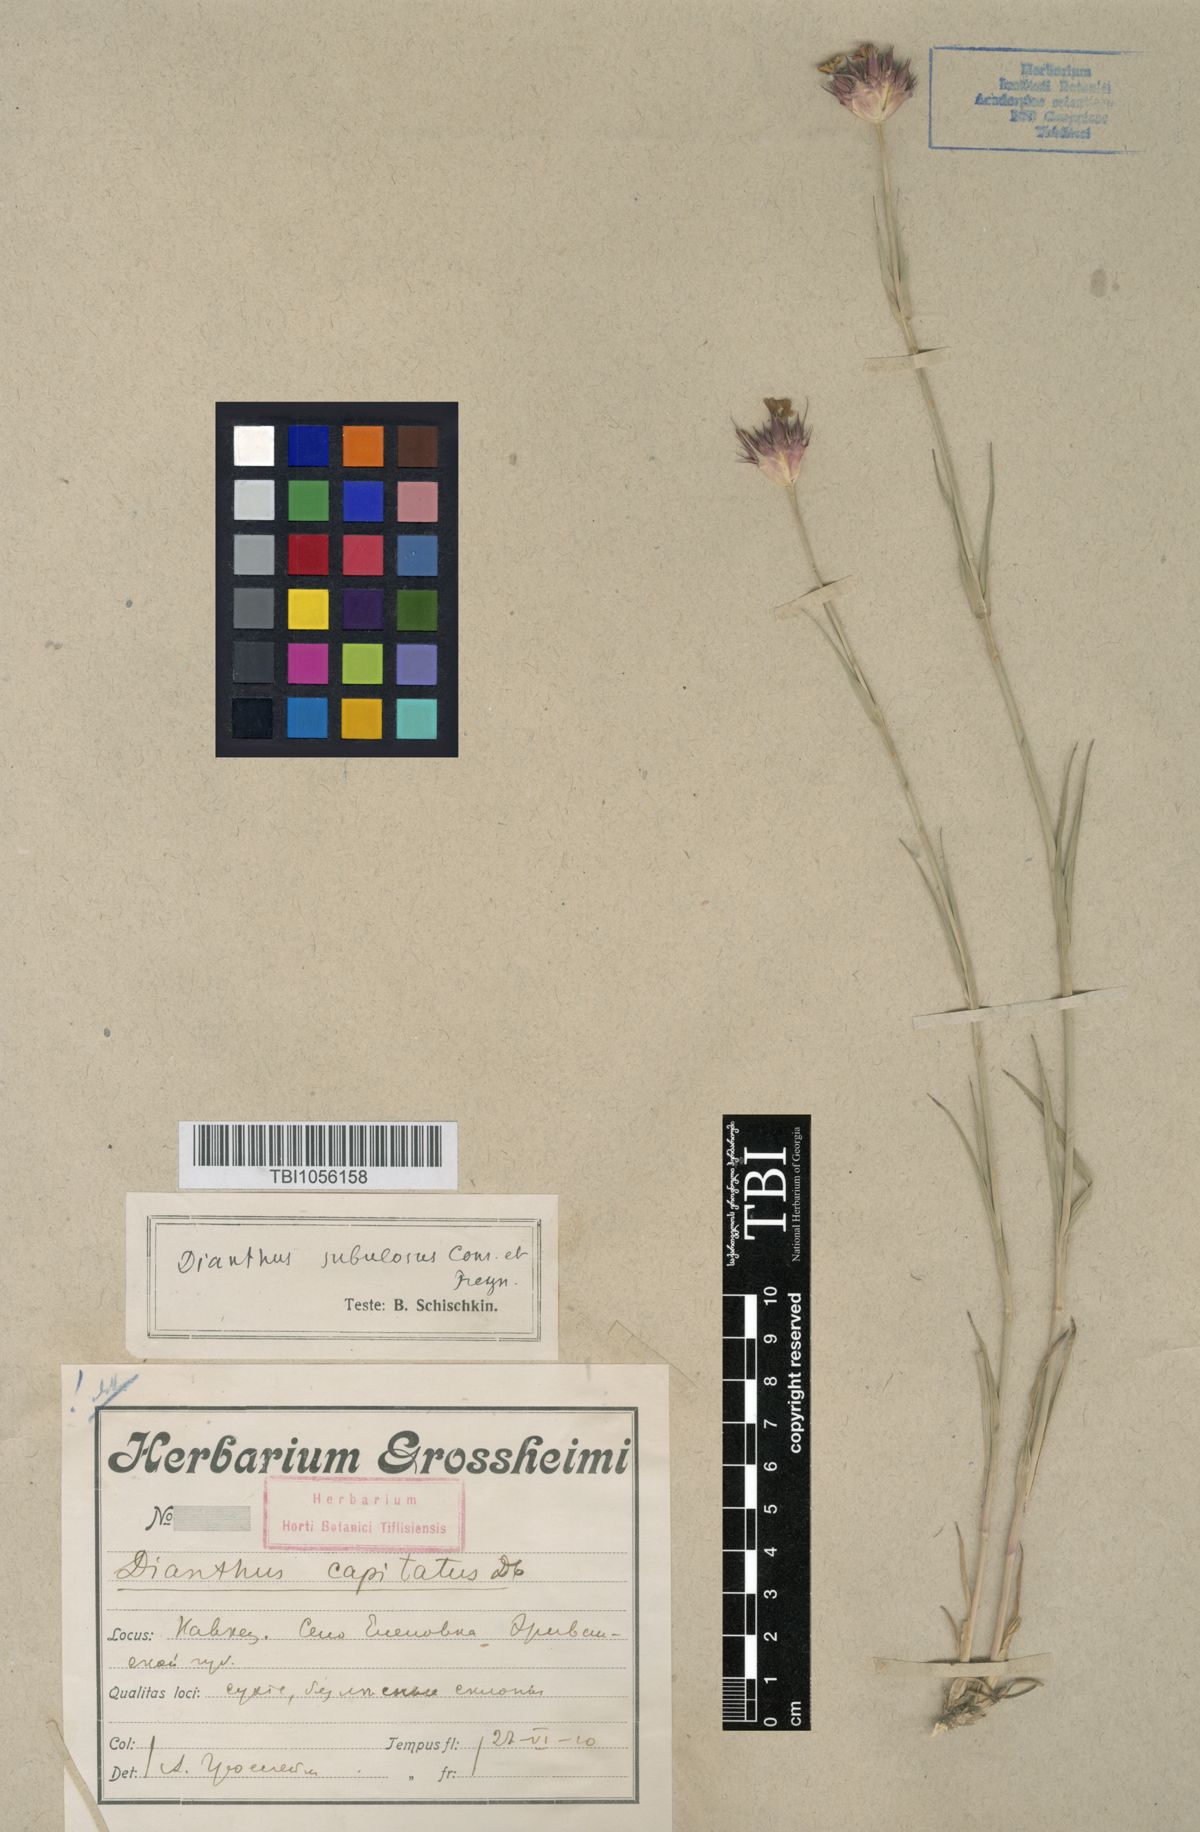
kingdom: Plantae
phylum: Tracheophyta
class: Magnoliopsida
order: Caryophyllales
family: Caryophyllaceae
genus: Dianthus
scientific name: Dianthus subulosus
